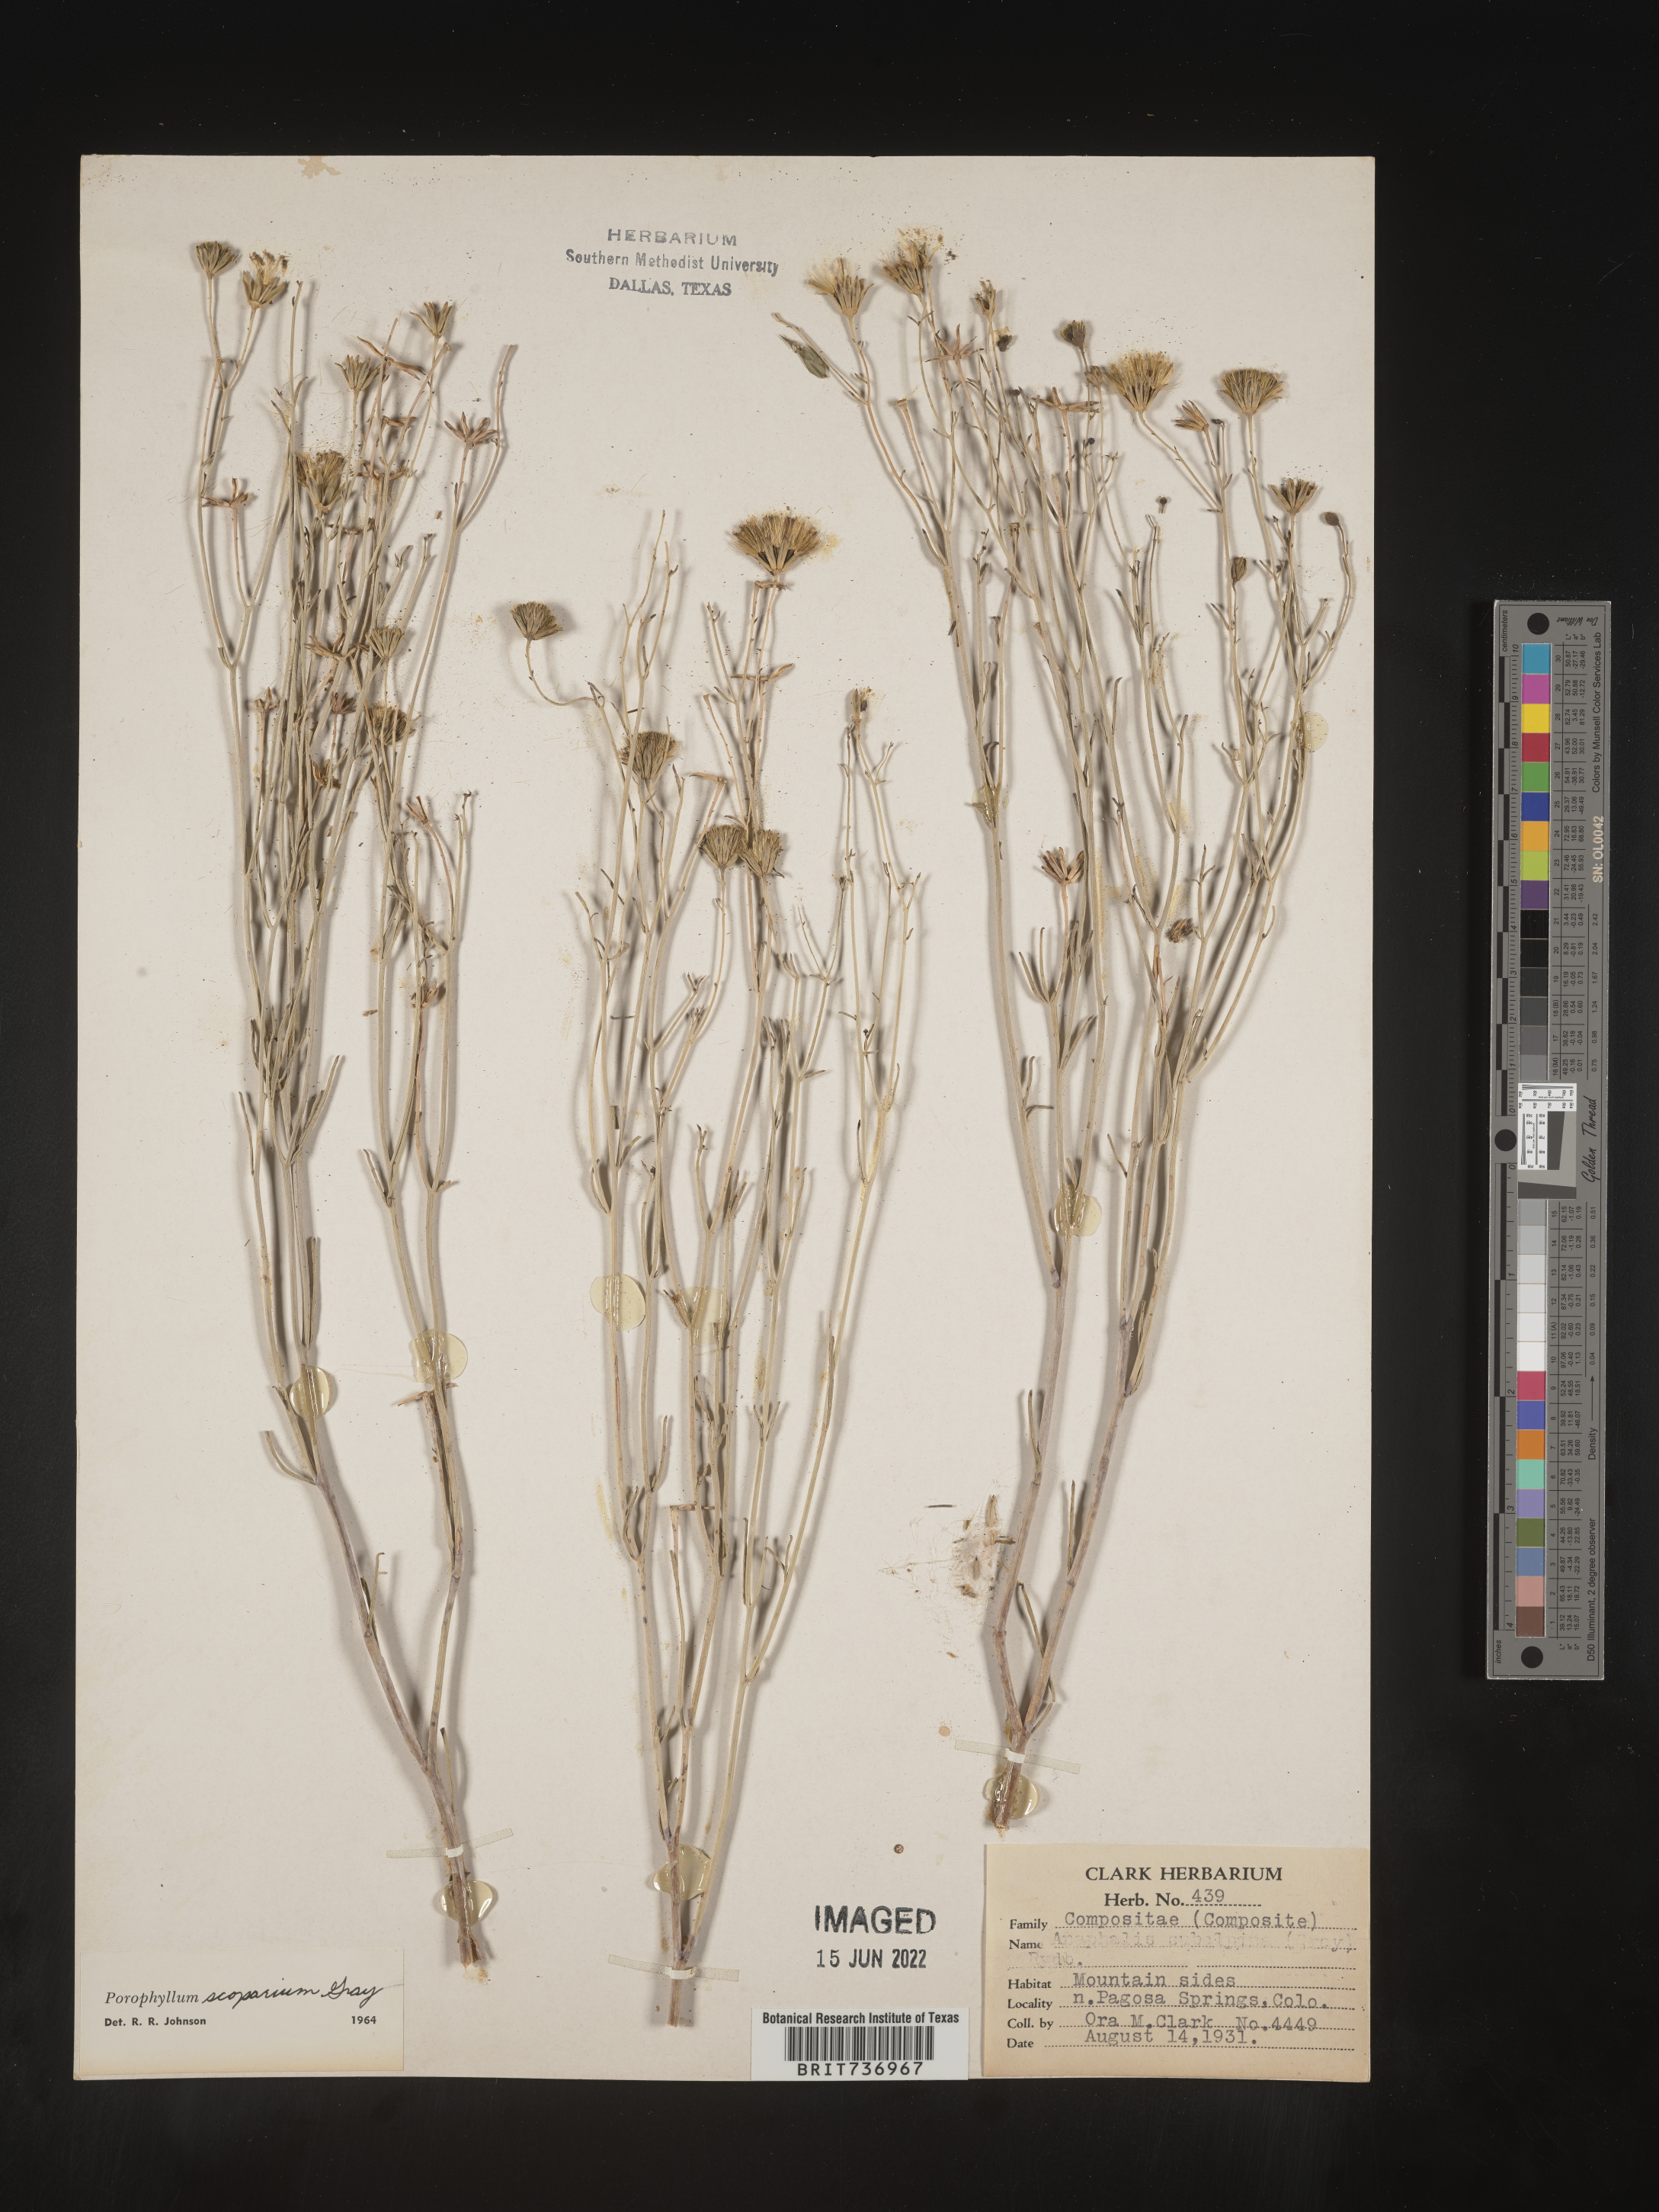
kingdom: Plantae
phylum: Tracheophyta
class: Magnoliopsida
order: Asterales
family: Asteraceae
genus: Porophyllum
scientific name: Porophyllum
